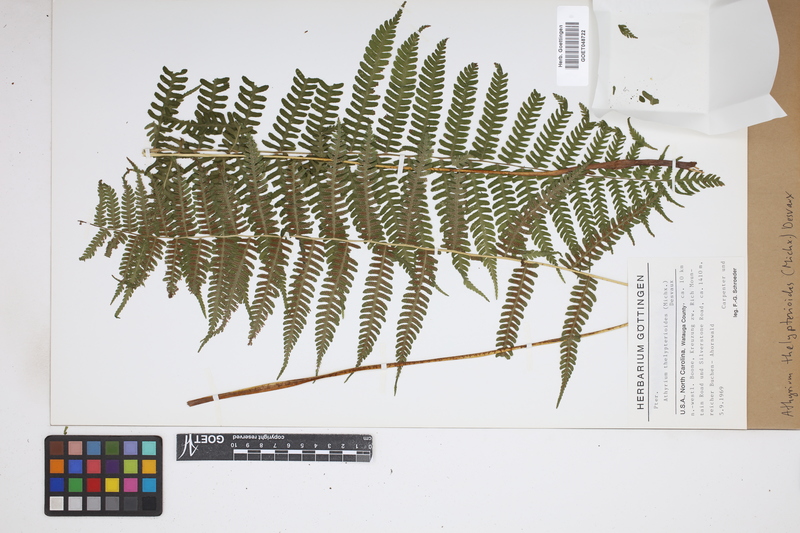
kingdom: Plantae
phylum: Tracheophyta
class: Polypodiopsida
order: Polypodiales
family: Thelypteridaceae
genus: Amauropelta
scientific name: Amauropelta noveboracensis
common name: New york fern
